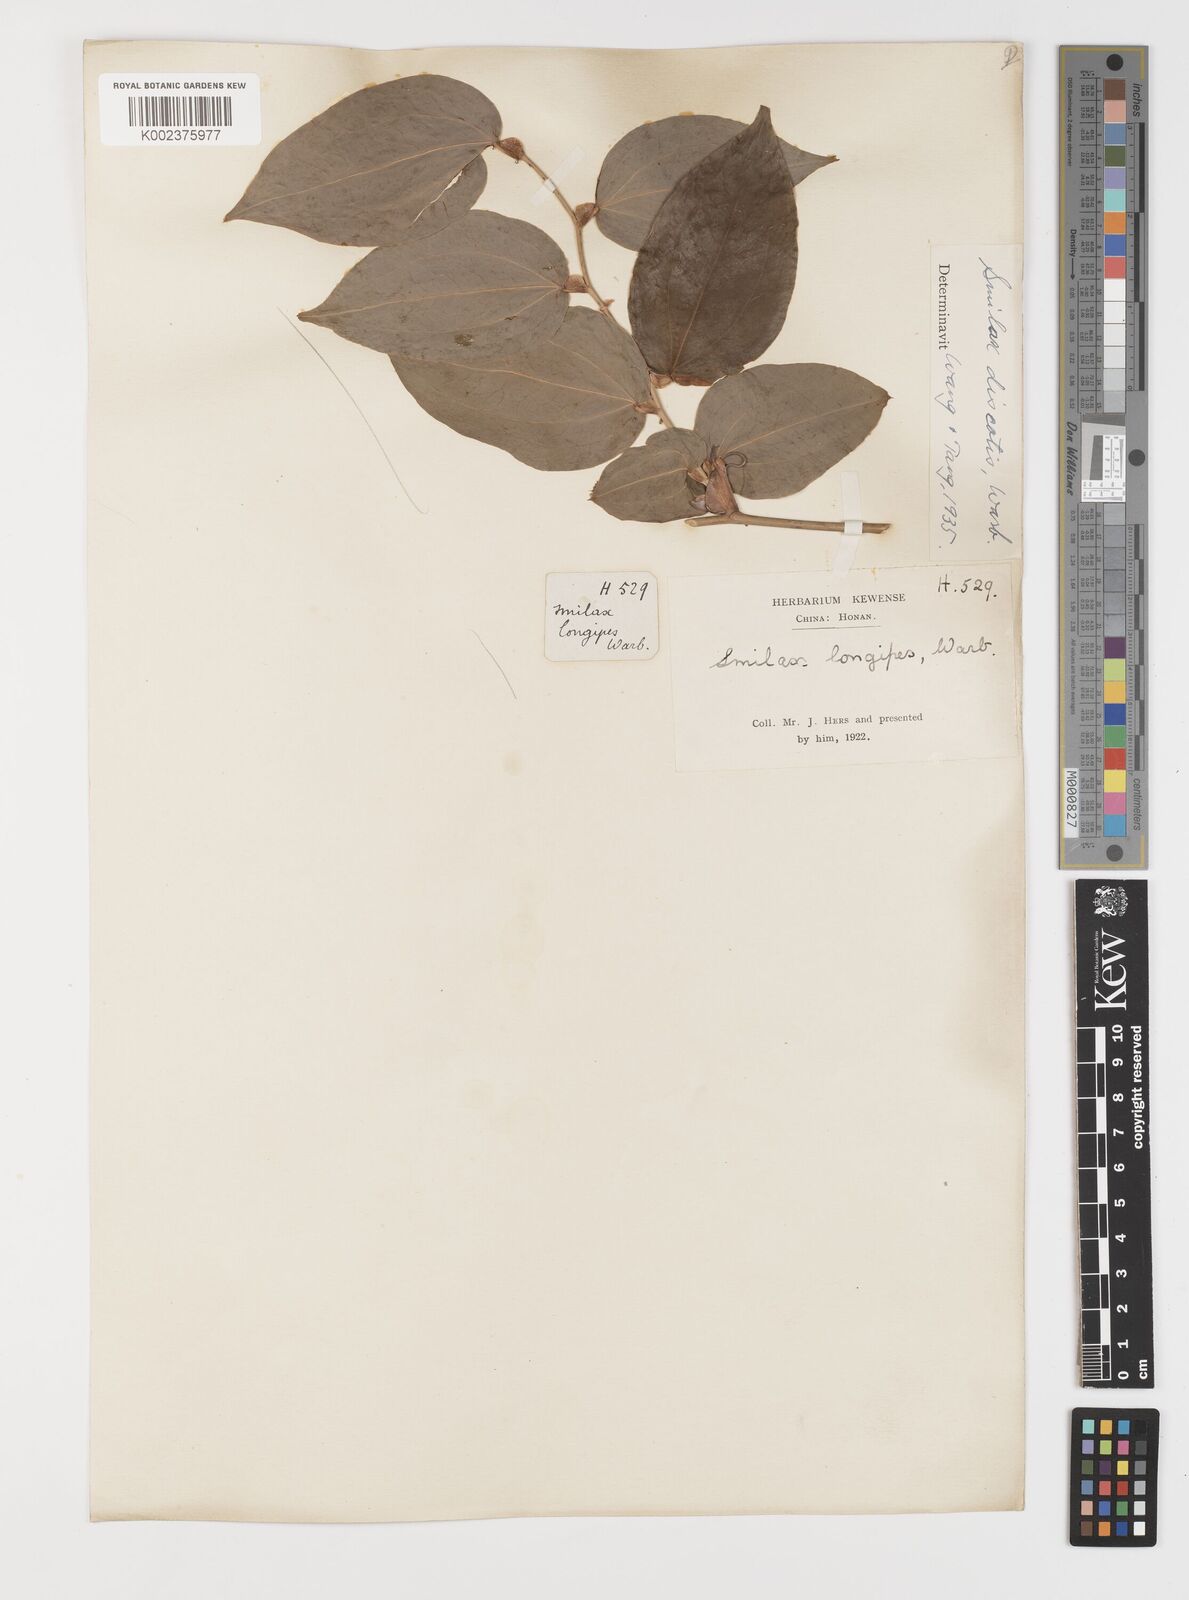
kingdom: Plantae
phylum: Tracheophyta
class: Liliopsida
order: Liliales
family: Smilacaceae
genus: Smilax
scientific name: Smilax discotis
